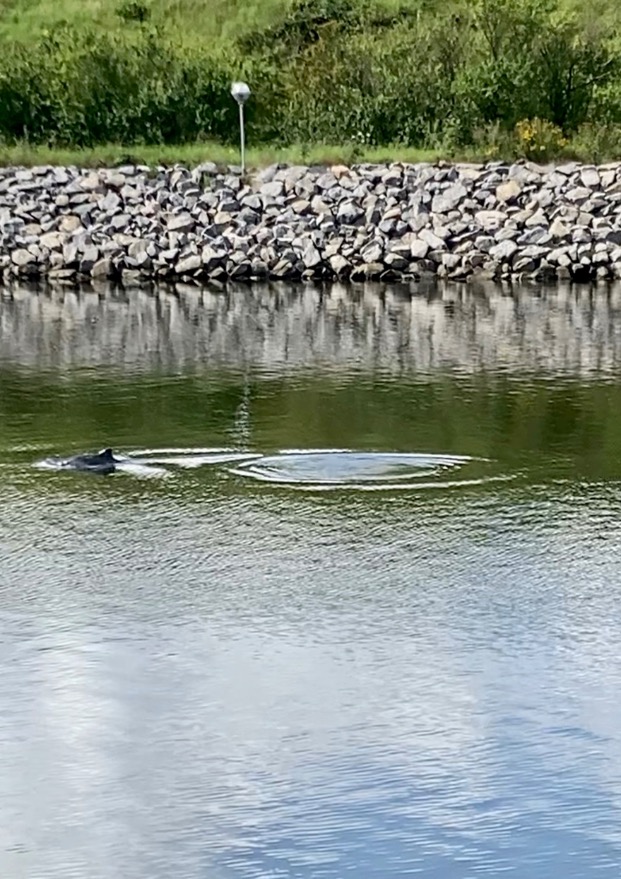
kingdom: Animalia
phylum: Chordata
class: Mammalia
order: Cetacea
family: Phocoenidae
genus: Phocoena
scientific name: Phocoena phocoena
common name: Marsvin
